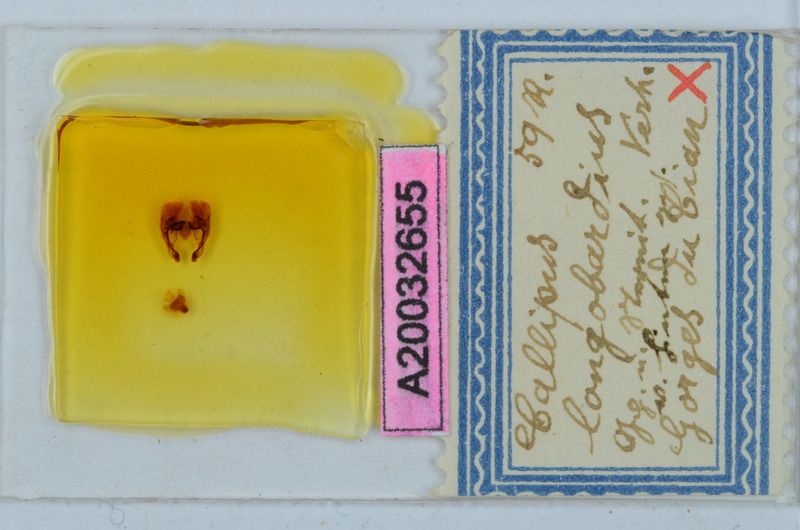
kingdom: Animalia
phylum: Arthropoda
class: Diplopoda
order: Callipodida
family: Callipodidae
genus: Callipus
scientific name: Callipus foetidissimus
